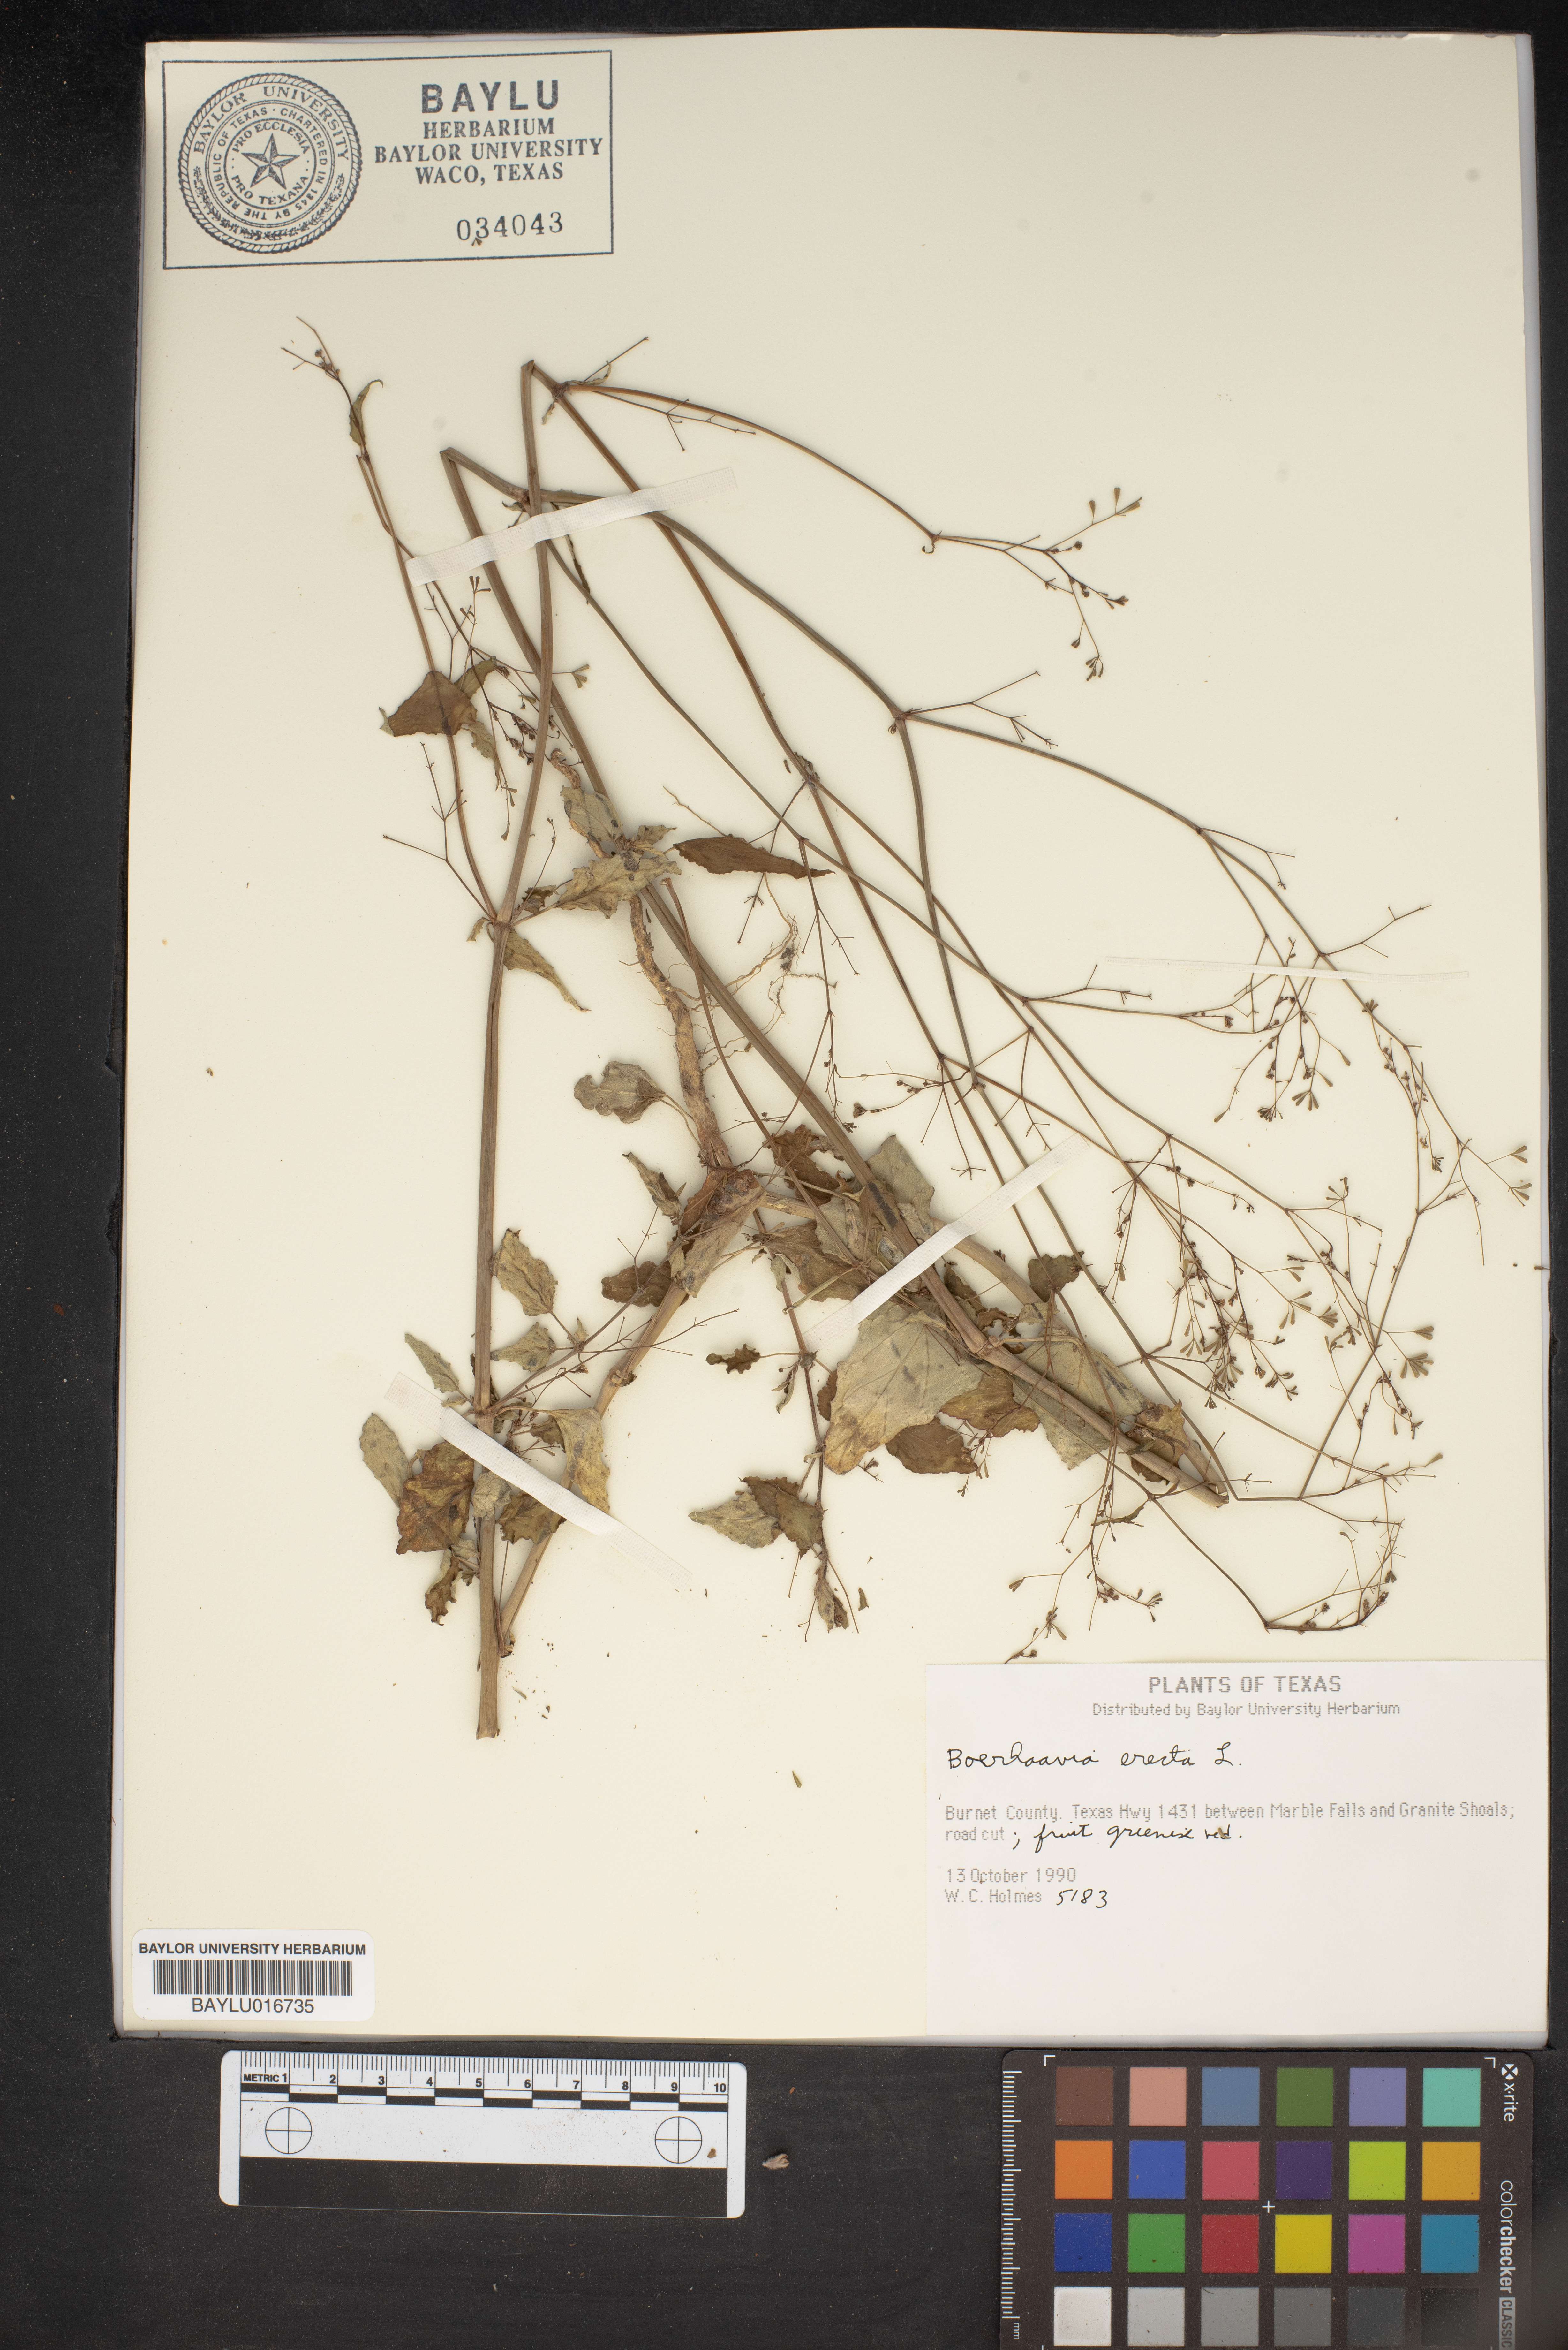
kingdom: Plantae
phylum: Tracheophyta
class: Magnoliopsida
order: Caryophyllales
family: Nyctaginaceae
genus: Boerhavia
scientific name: Boerhavia erecta
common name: Erect spiderling
